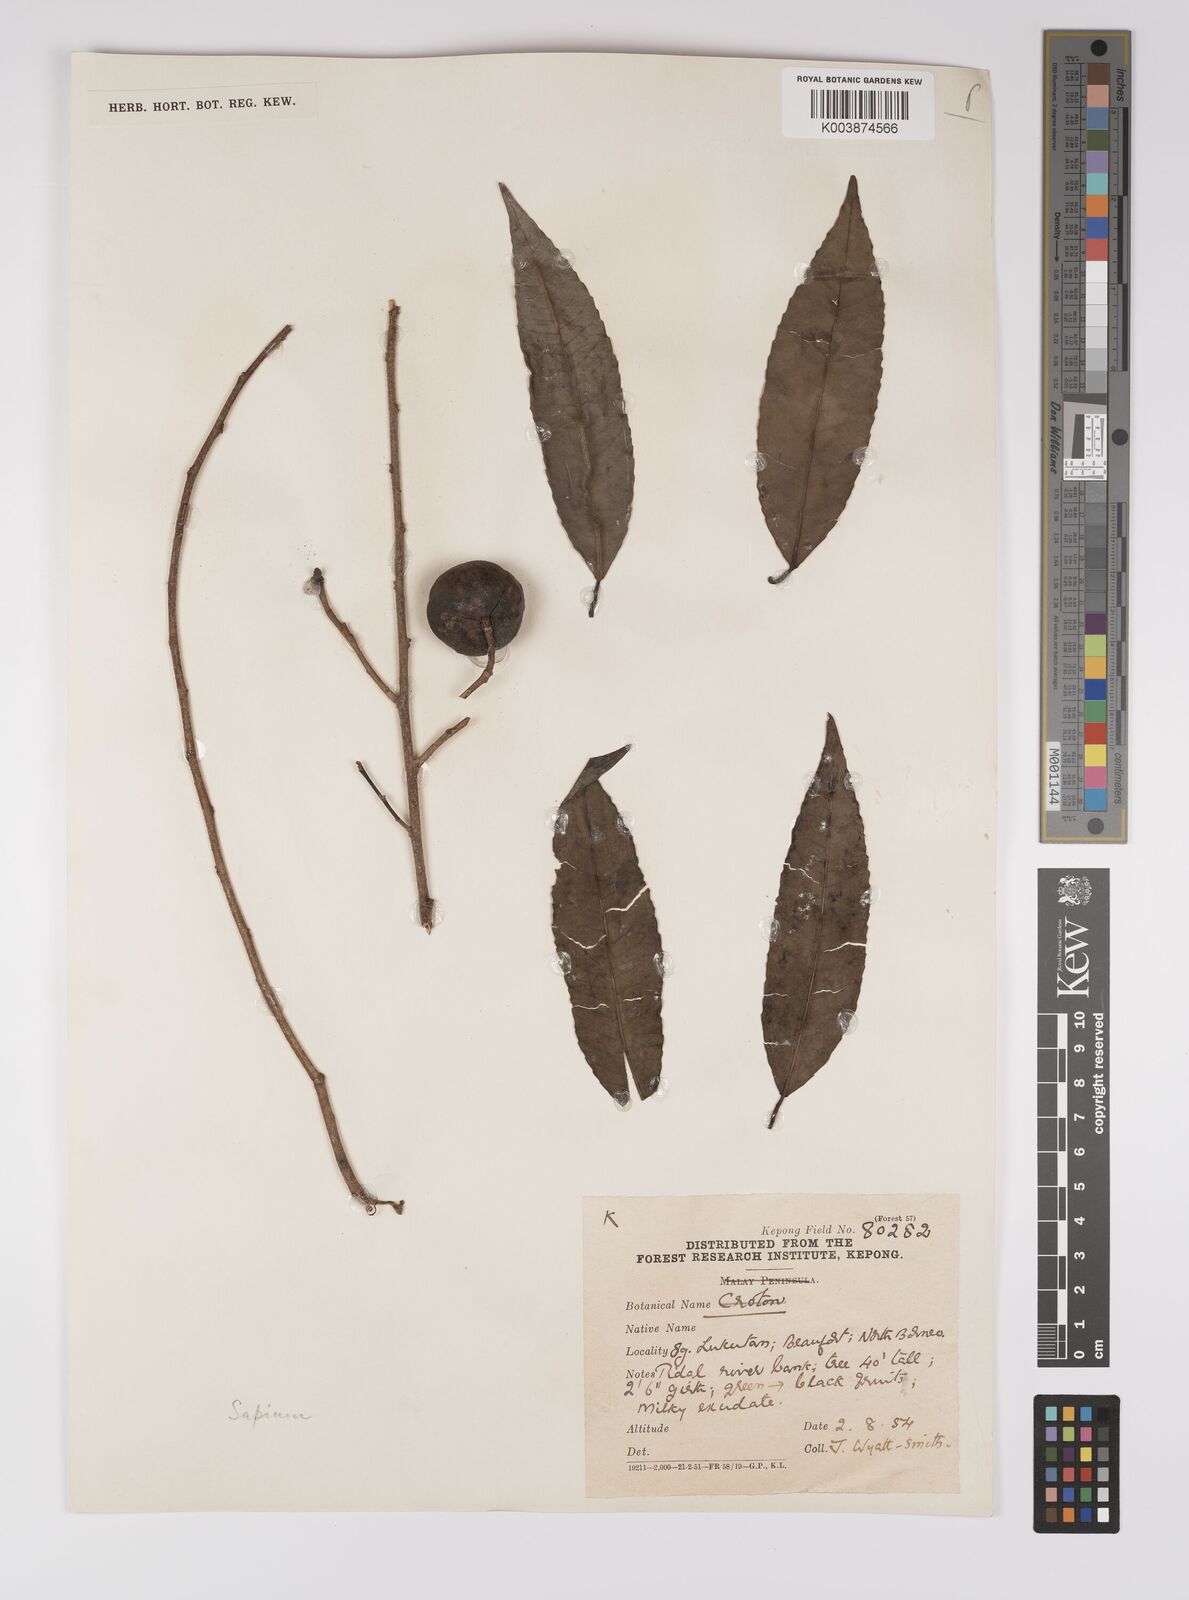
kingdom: Plantae
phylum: Tracheophyta
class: Magnoliopsida
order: Malpighiales
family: Euphorbiaceae
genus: Shirakiopsis
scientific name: Shirakiopsis indica
